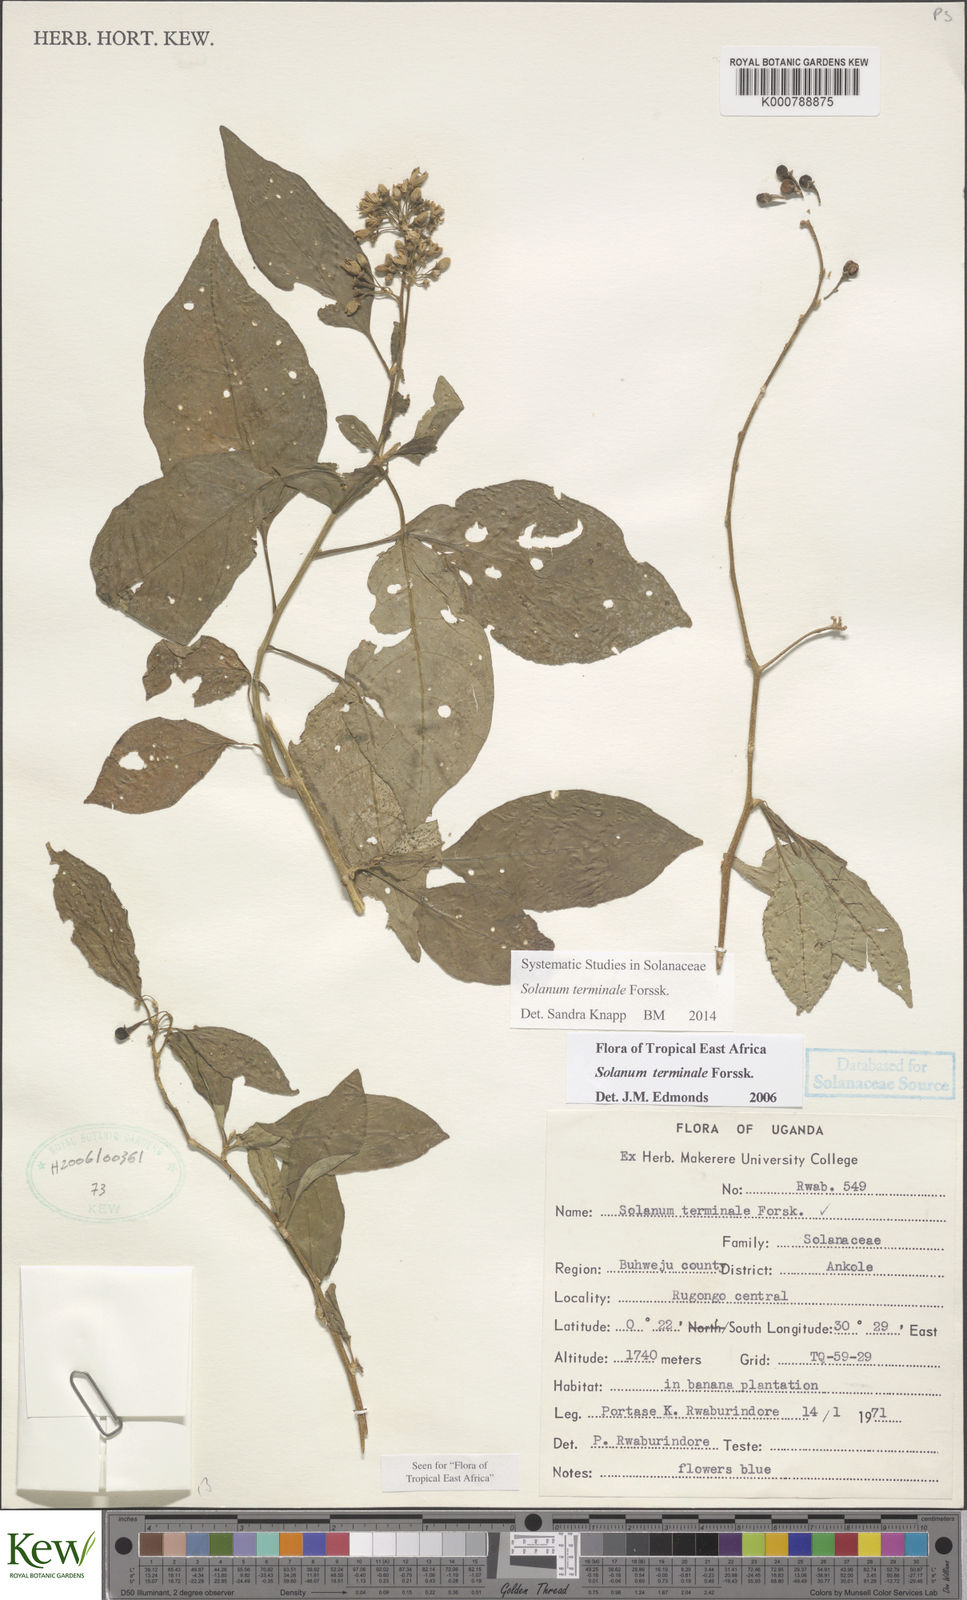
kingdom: Plantae
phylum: Tracheophyta
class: Magnoliopsida
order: Solanales
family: Solanaceae
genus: Solanum
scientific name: Solanum terminale
